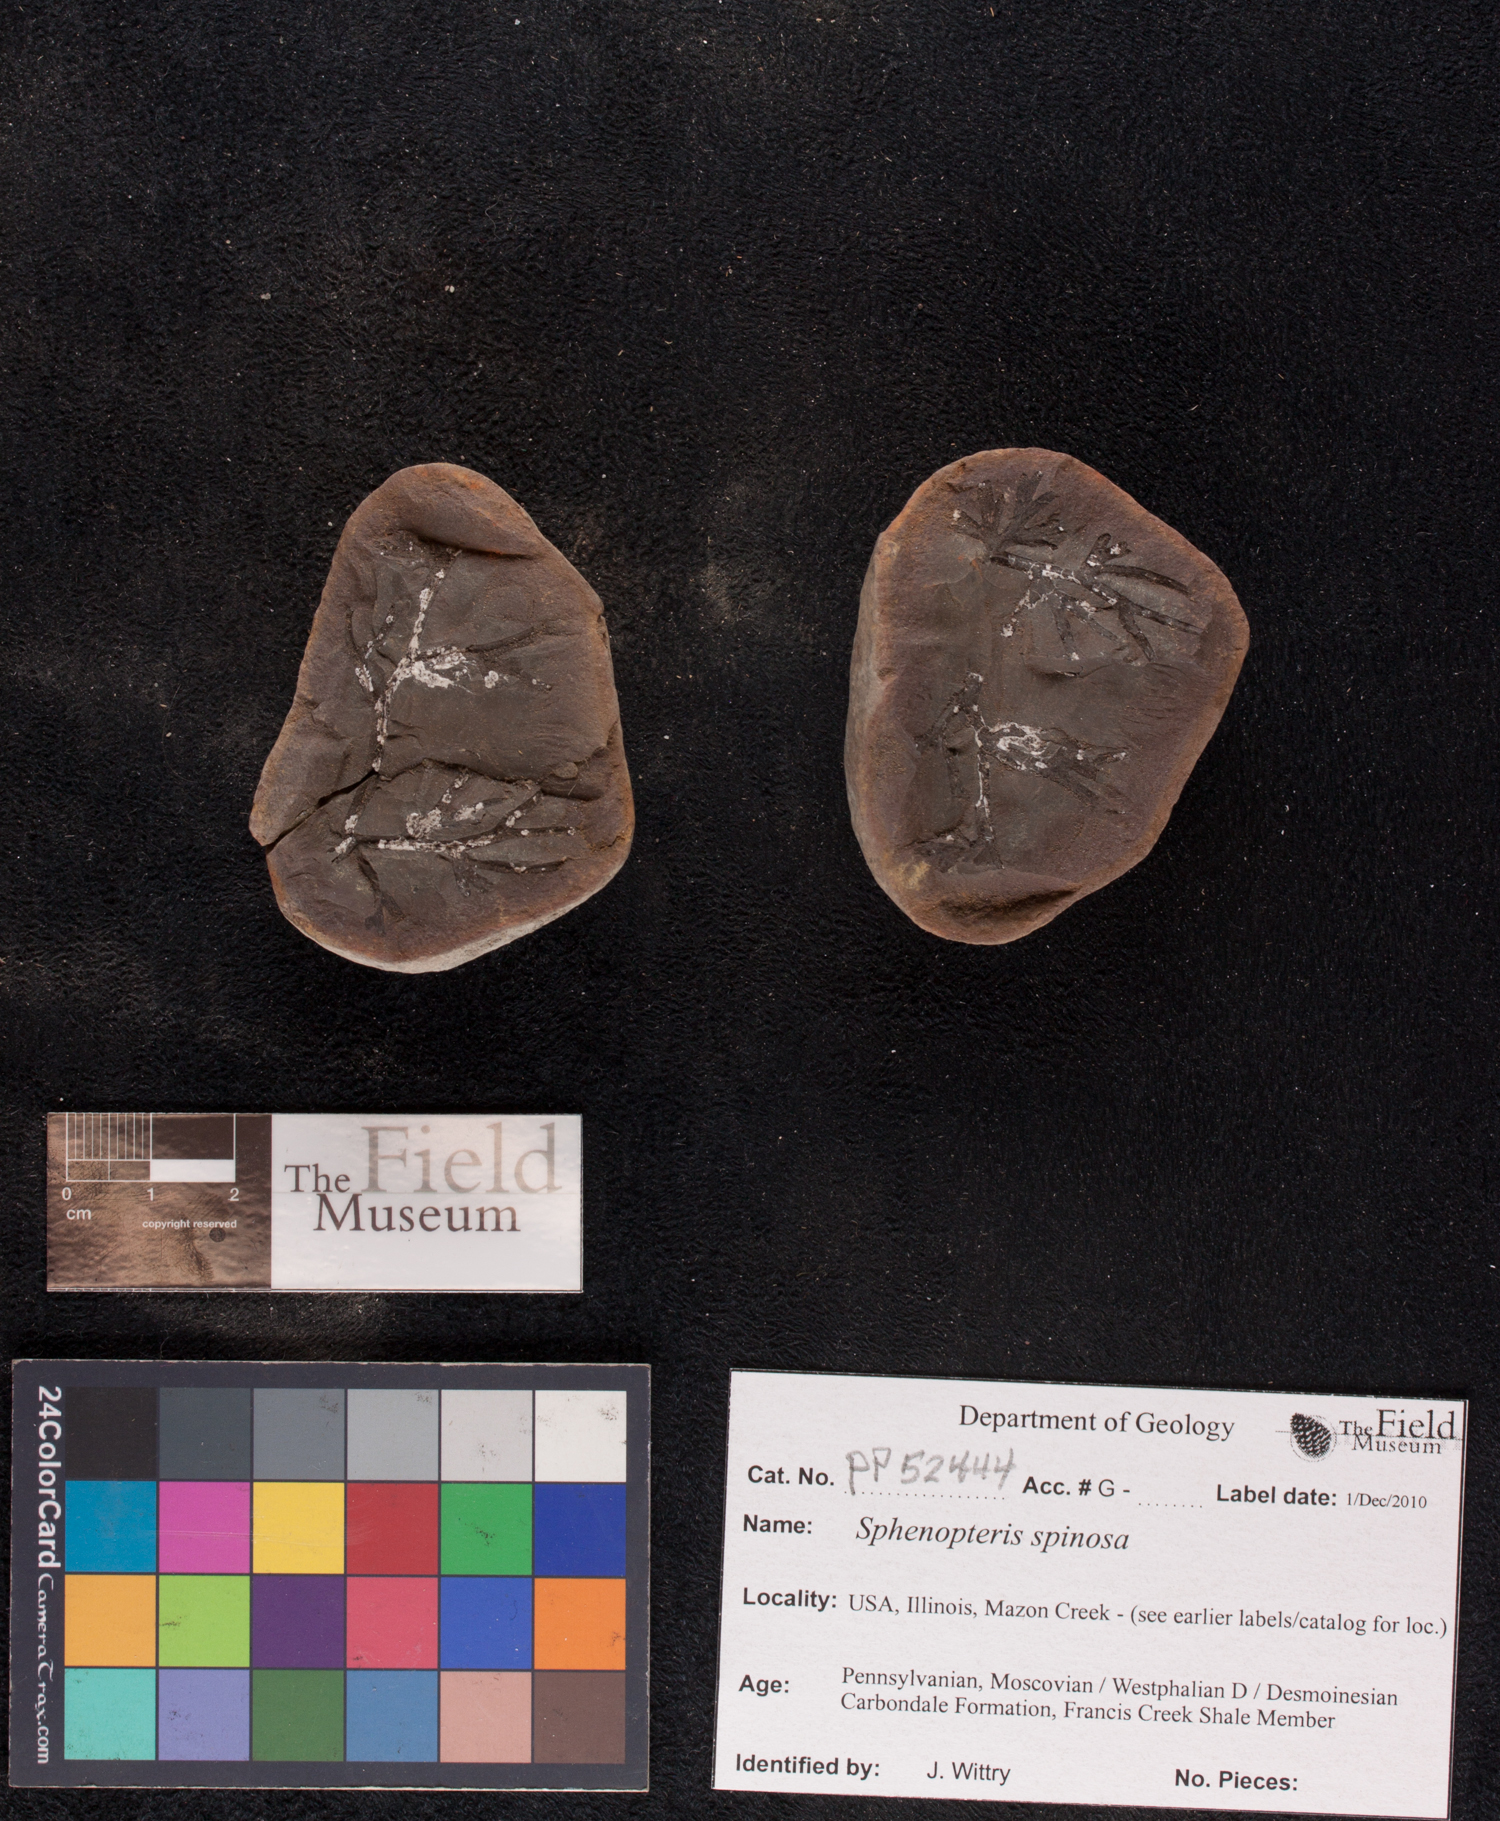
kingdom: Plantae
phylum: Tracheophyta
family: Lyginopteridaceae
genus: Sphenopteris
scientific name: Sphenopteris
